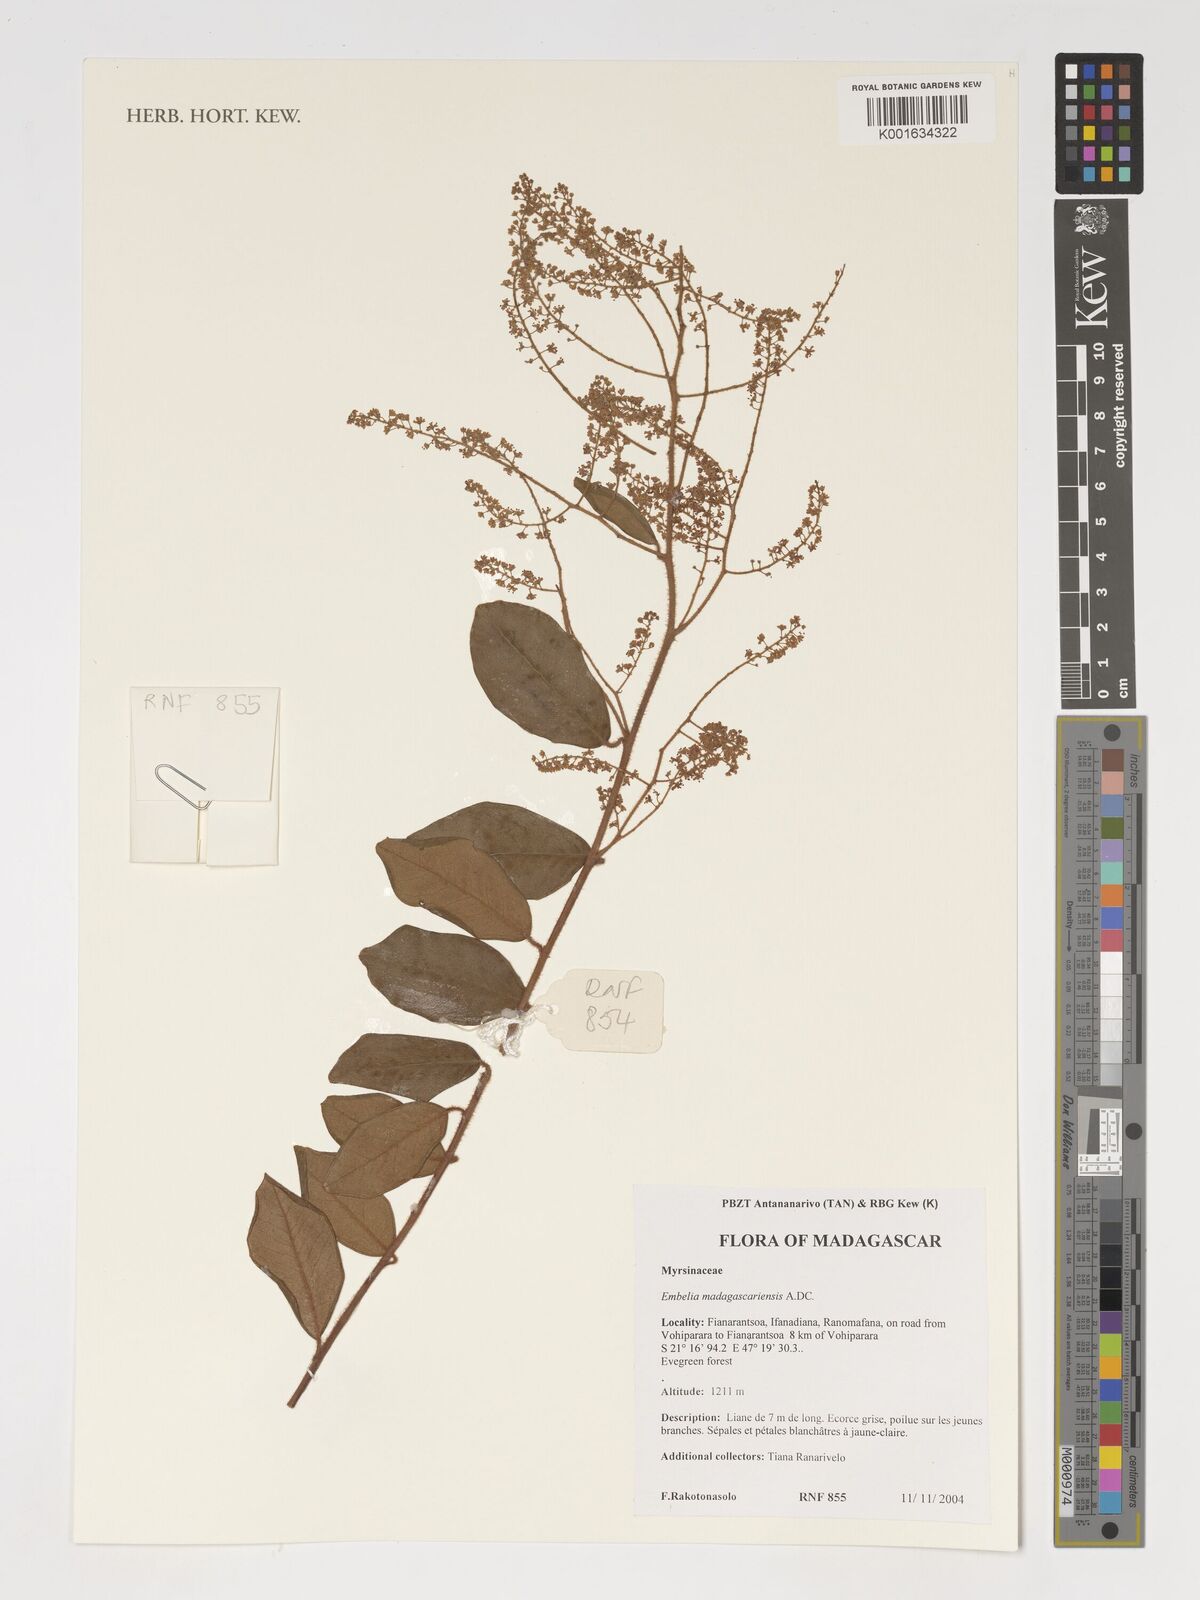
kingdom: Plantae
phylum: Tracheophyta
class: Magnoliopsida
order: Ericales
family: Primulaceae
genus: Embelia
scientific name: Embelia madagascariensis
